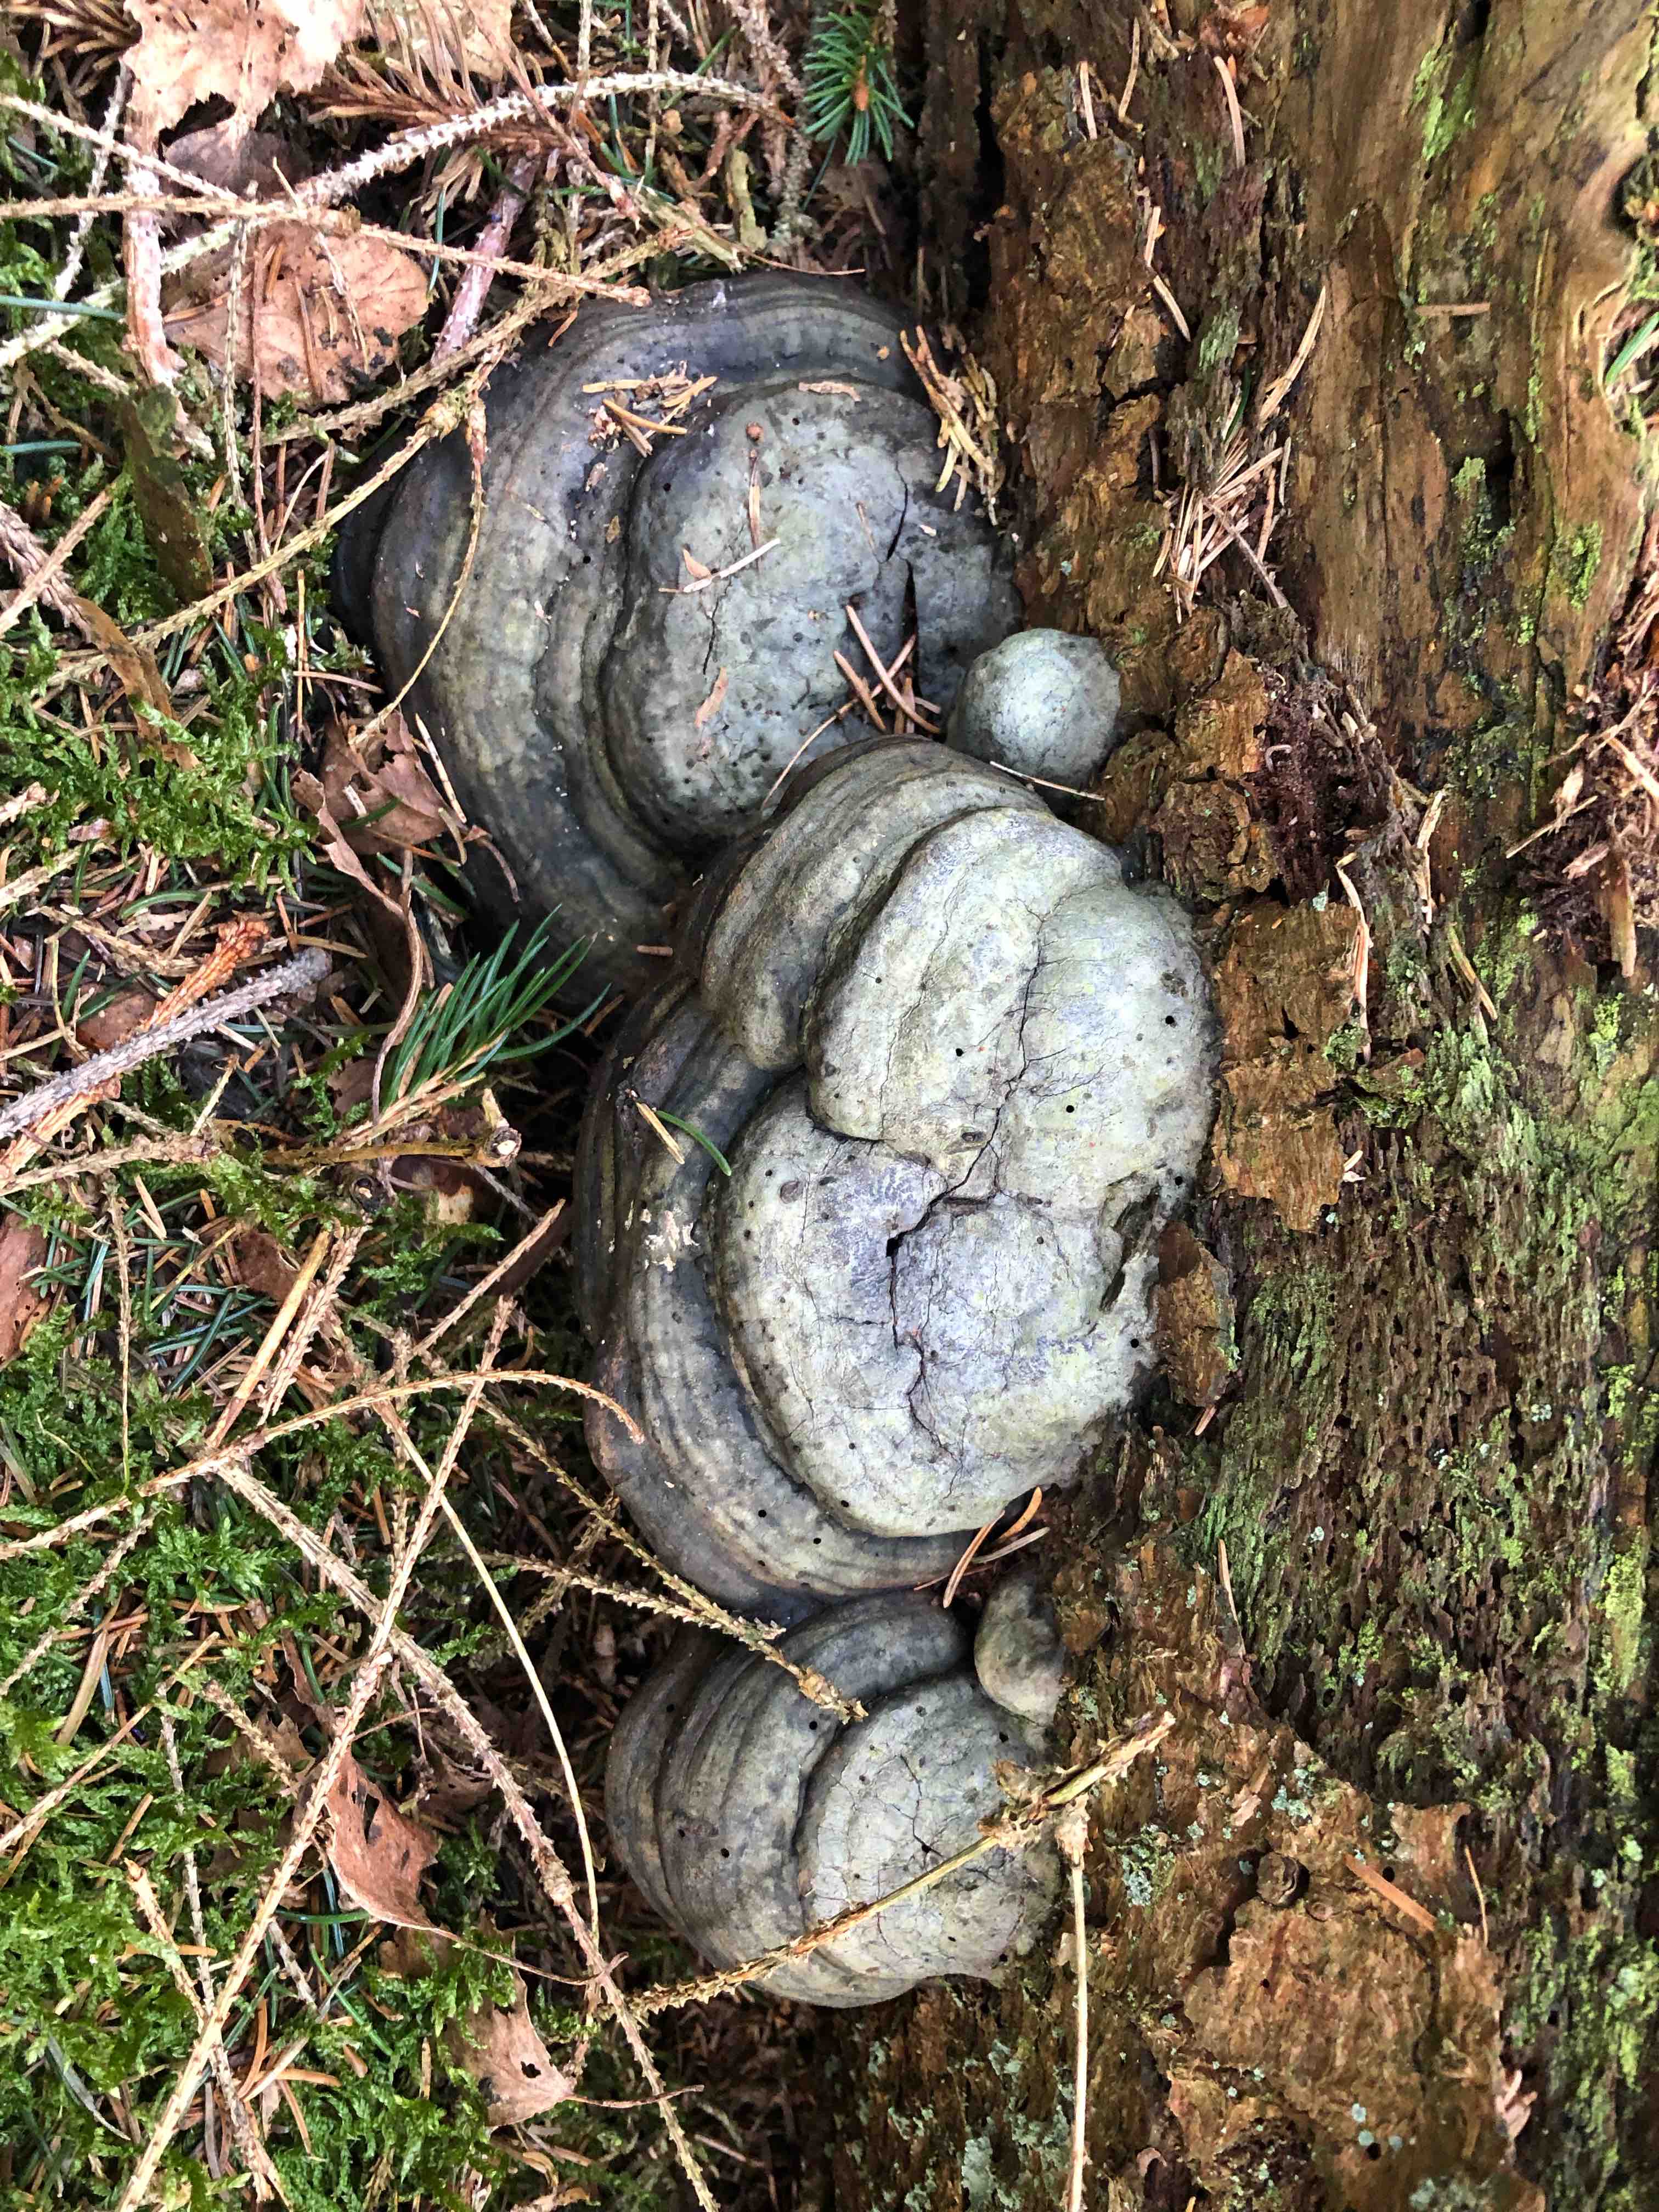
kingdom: Fungi
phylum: Basidiomycota
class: Agaricomycetes
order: Polyporales
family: Polyporaceae
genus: Fomes
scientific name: Fomes fomentarius
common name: tøndersvamp
